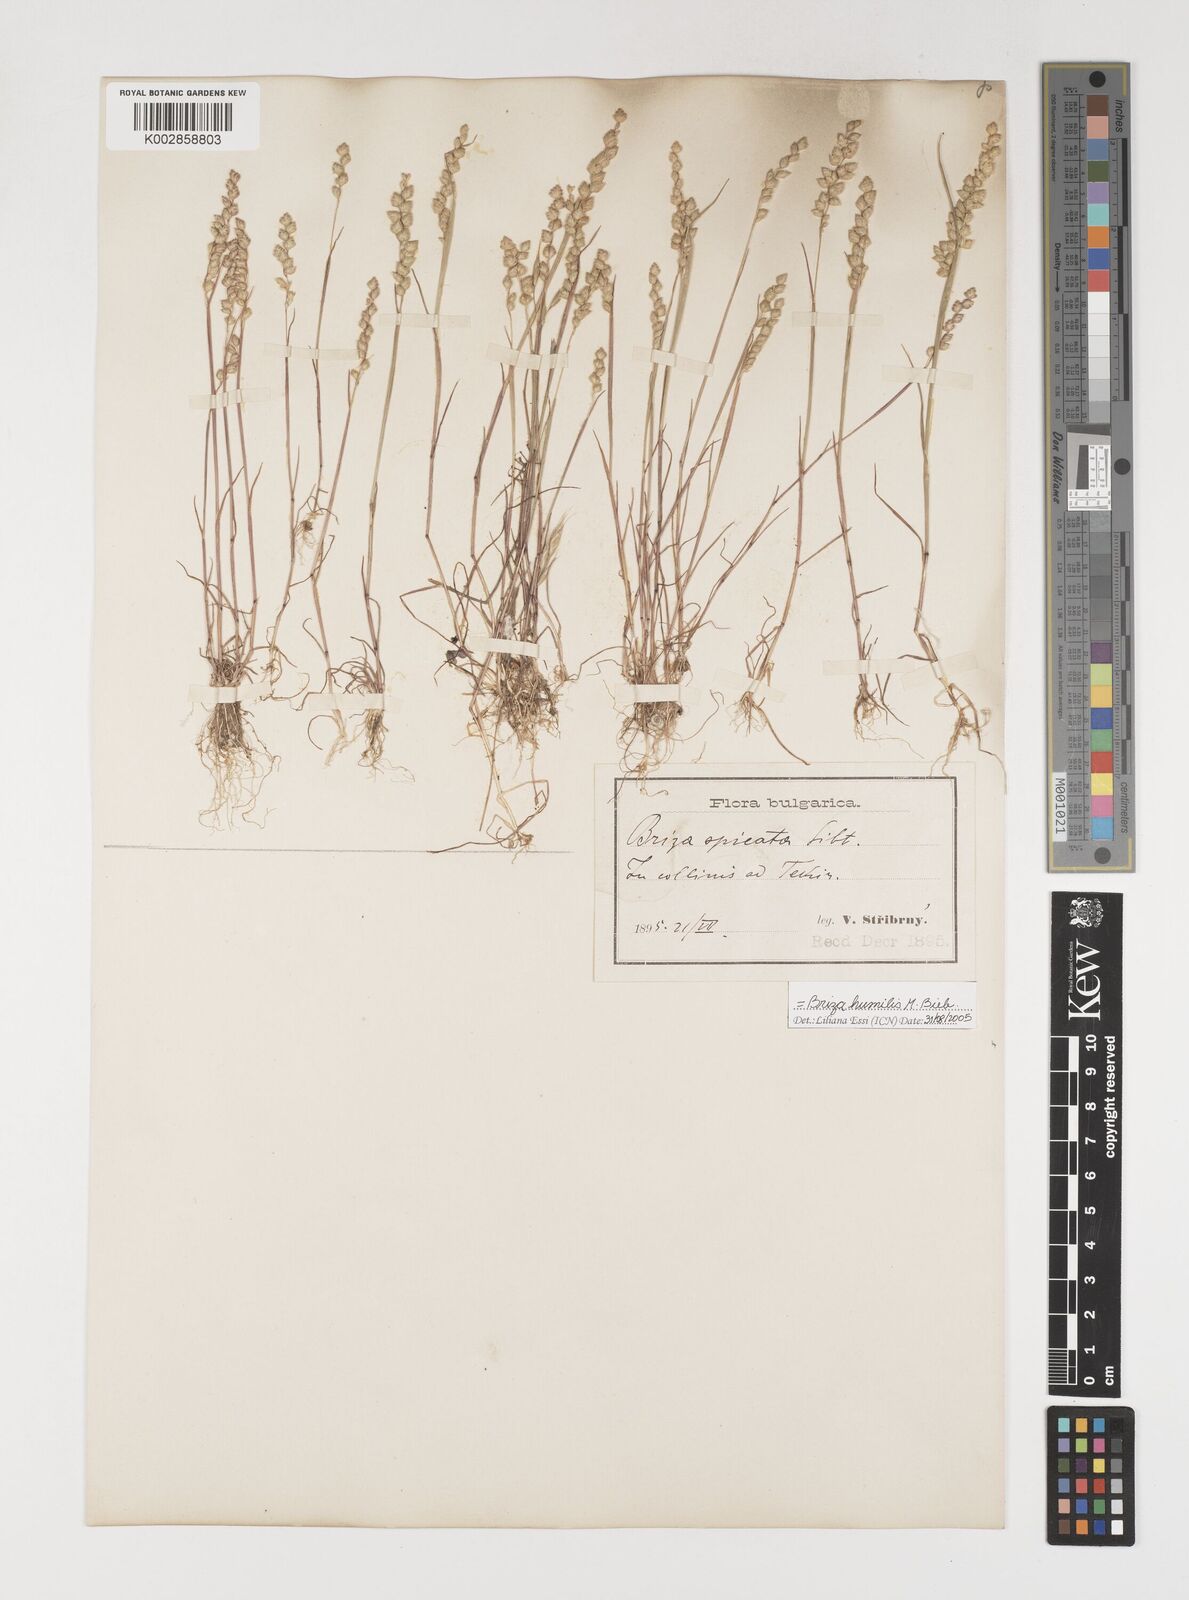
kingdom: Plantae
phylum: Tracheophyta
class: Liliopsida
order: Poales
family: Poaceae
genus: Briza
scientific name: Briza humilis
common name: Spiked quaking grass
